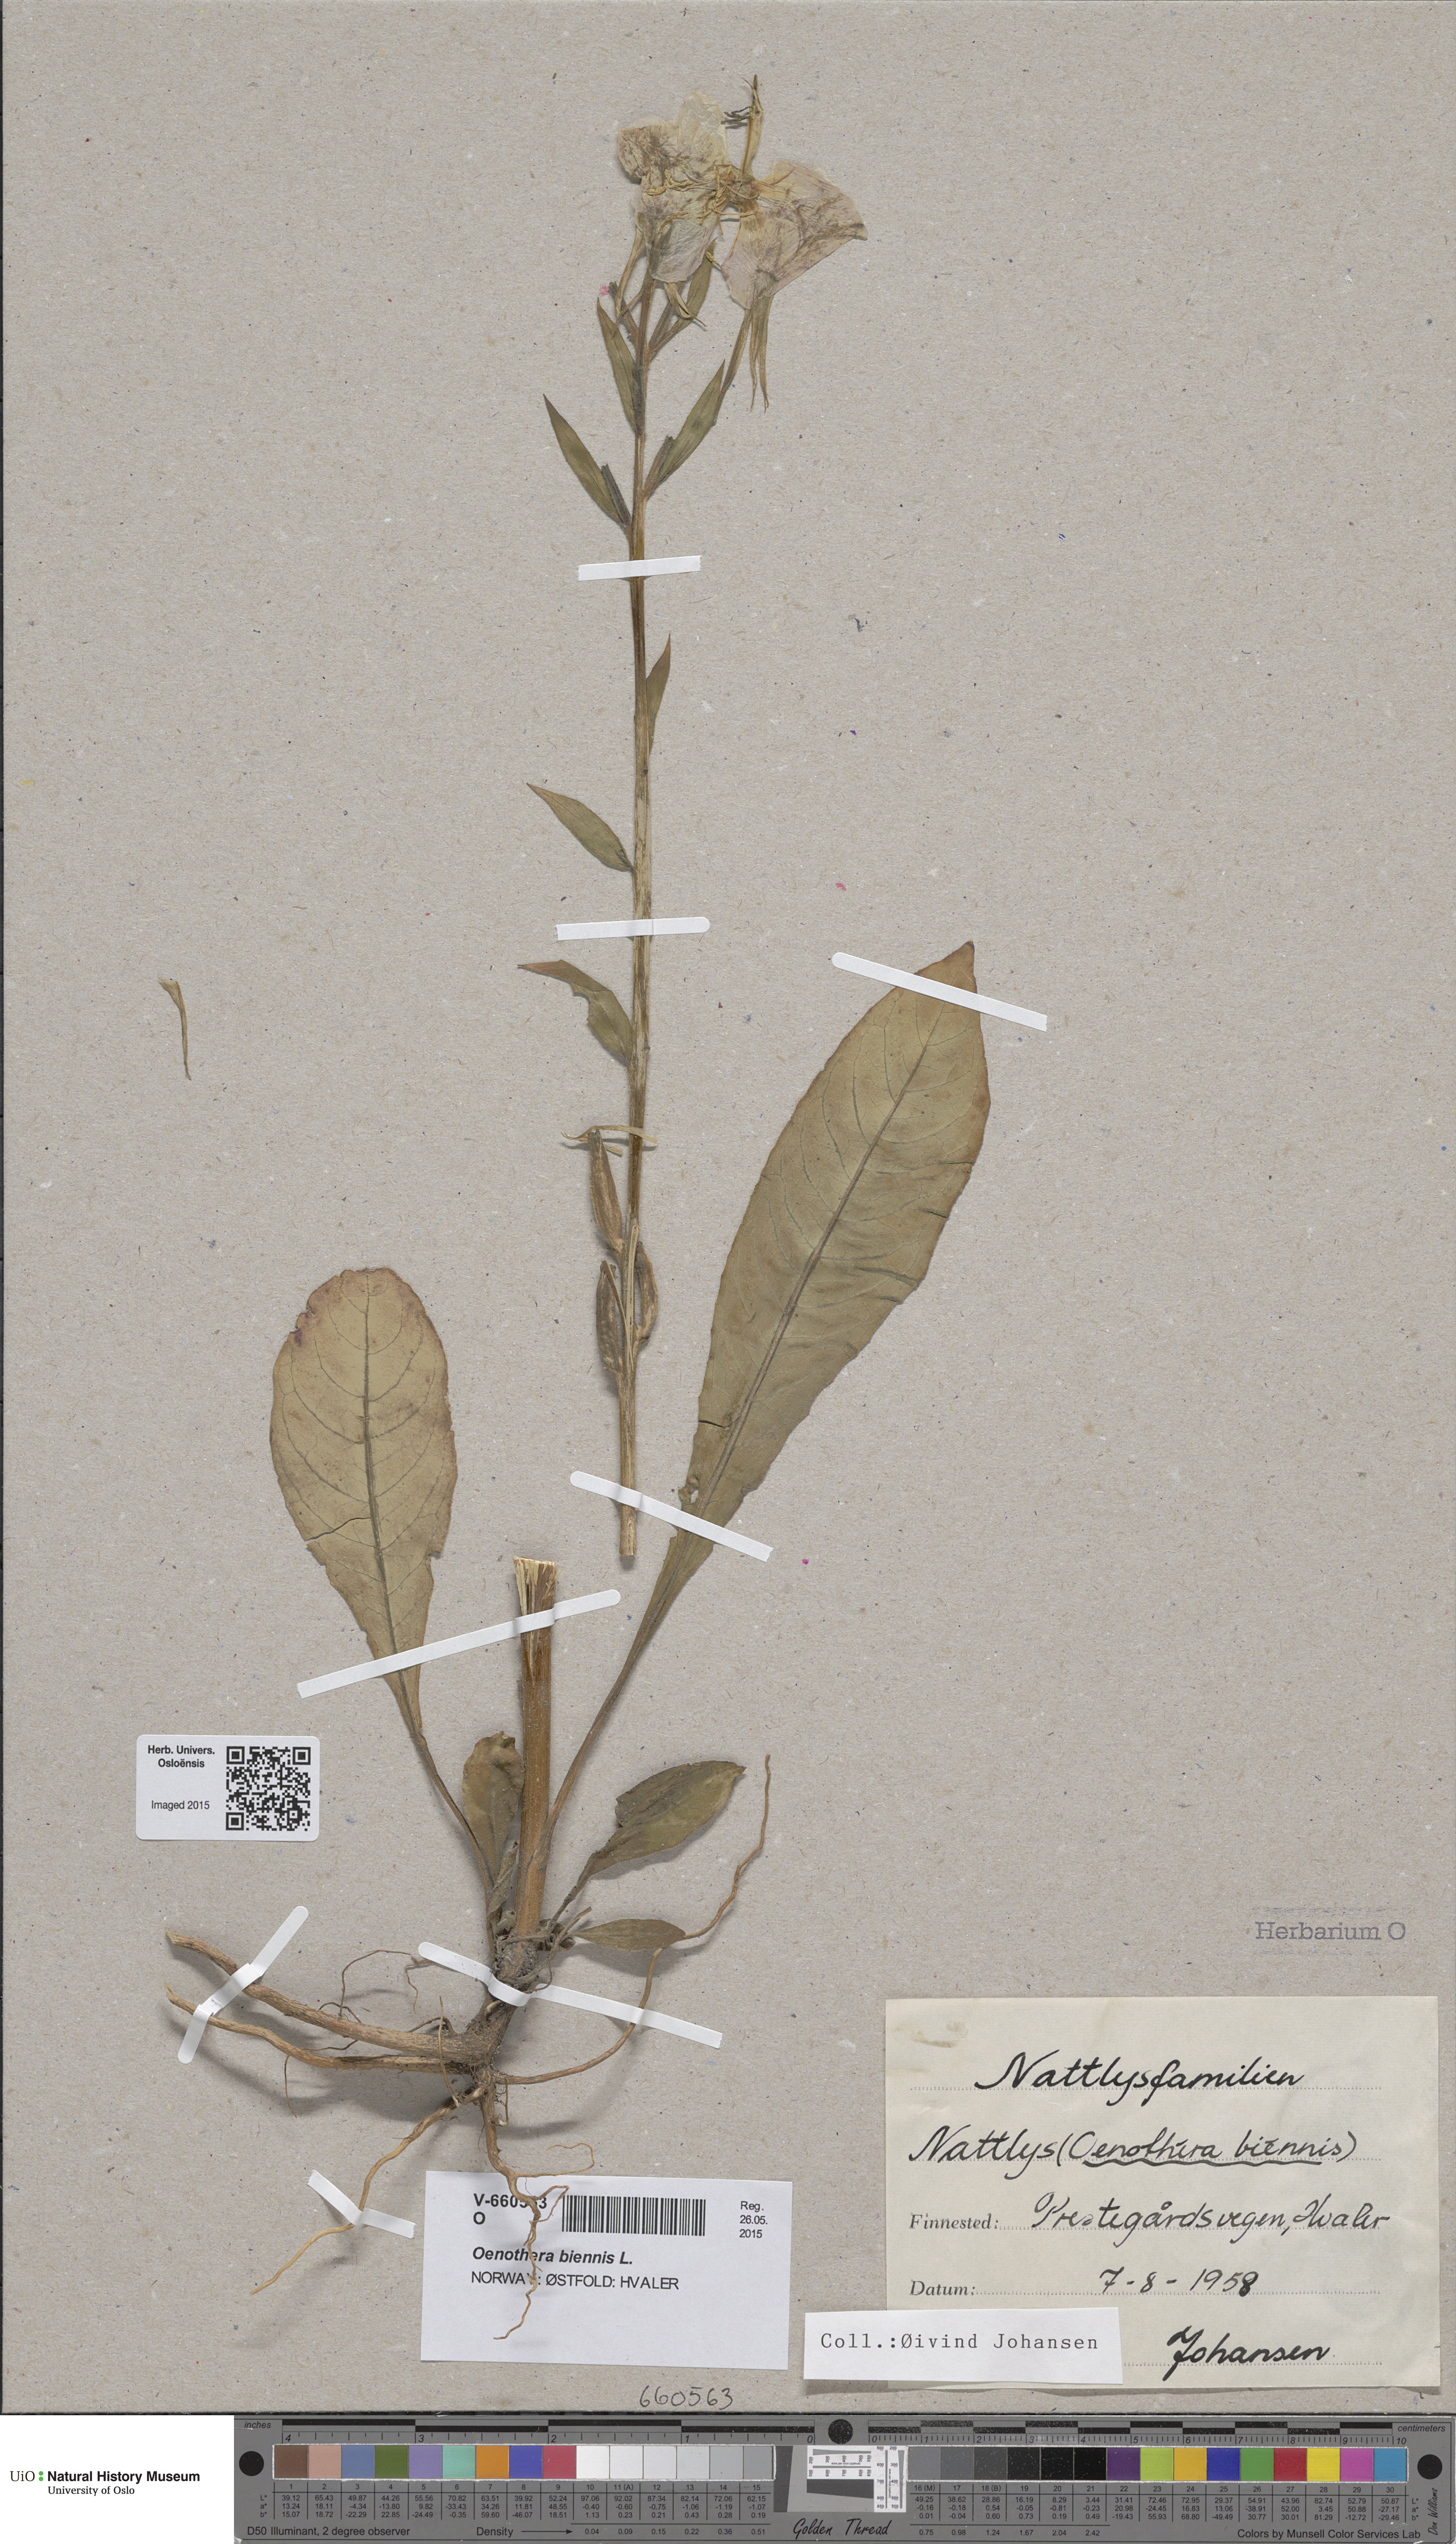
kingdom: Plantae
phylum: Tracheophyta
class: Magnoliopsida
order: Myrtales
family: Onagraceae
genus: Oenothera
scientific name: Oenothera biennis
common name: Common evening-primrose
